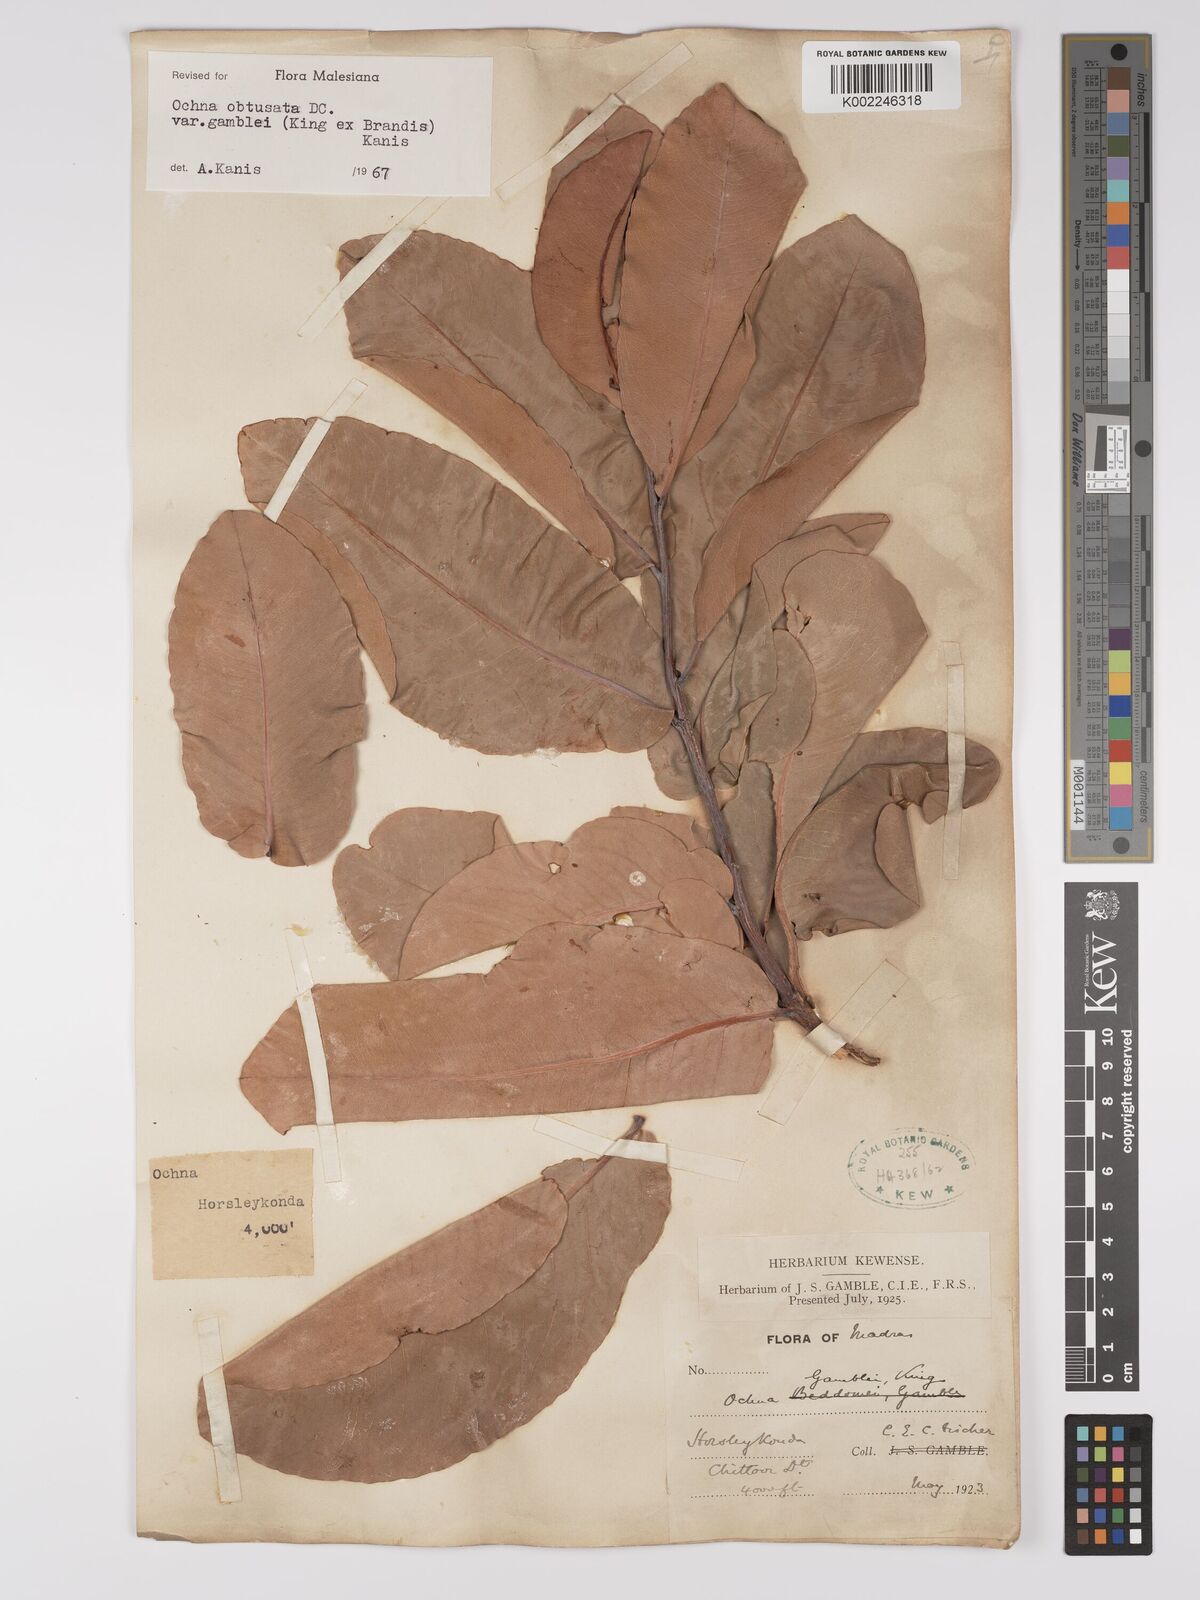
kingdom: Plantae
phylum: Tracheophyta
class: Magnoliopsida
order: Malpighiales
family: Ochnaceae
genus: Ochna
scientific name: Ochna obtusata
